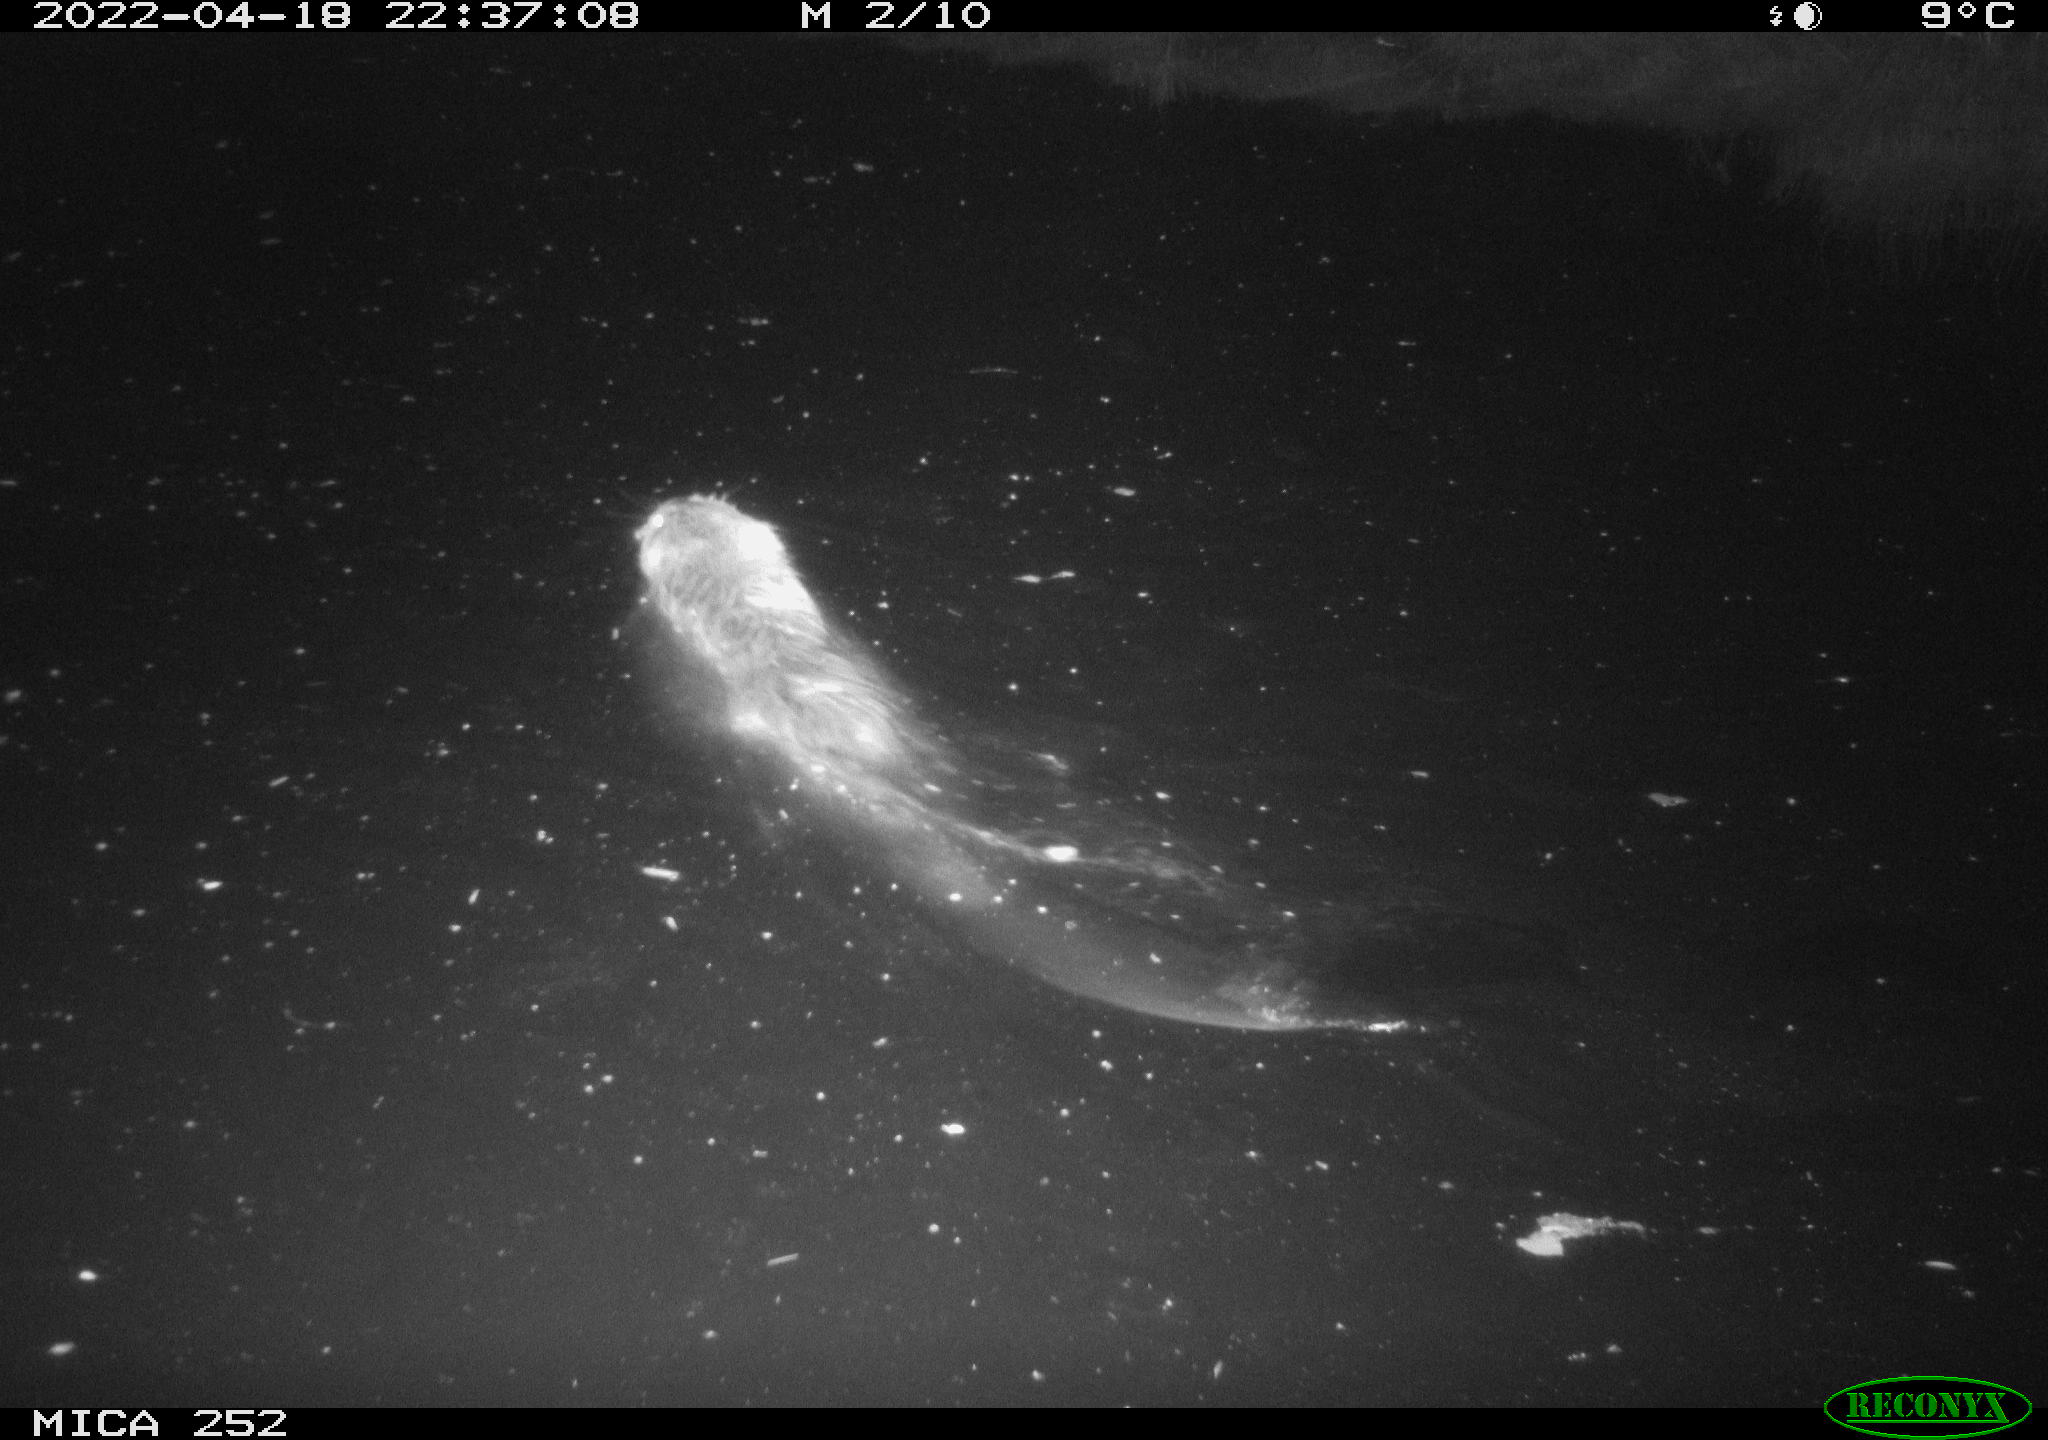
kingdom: Animalia
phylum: Chordata
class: Mammalia
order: Rodentia
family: Castoridae
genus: Castor
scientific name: Castor fiber
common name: Eurasian beaver
